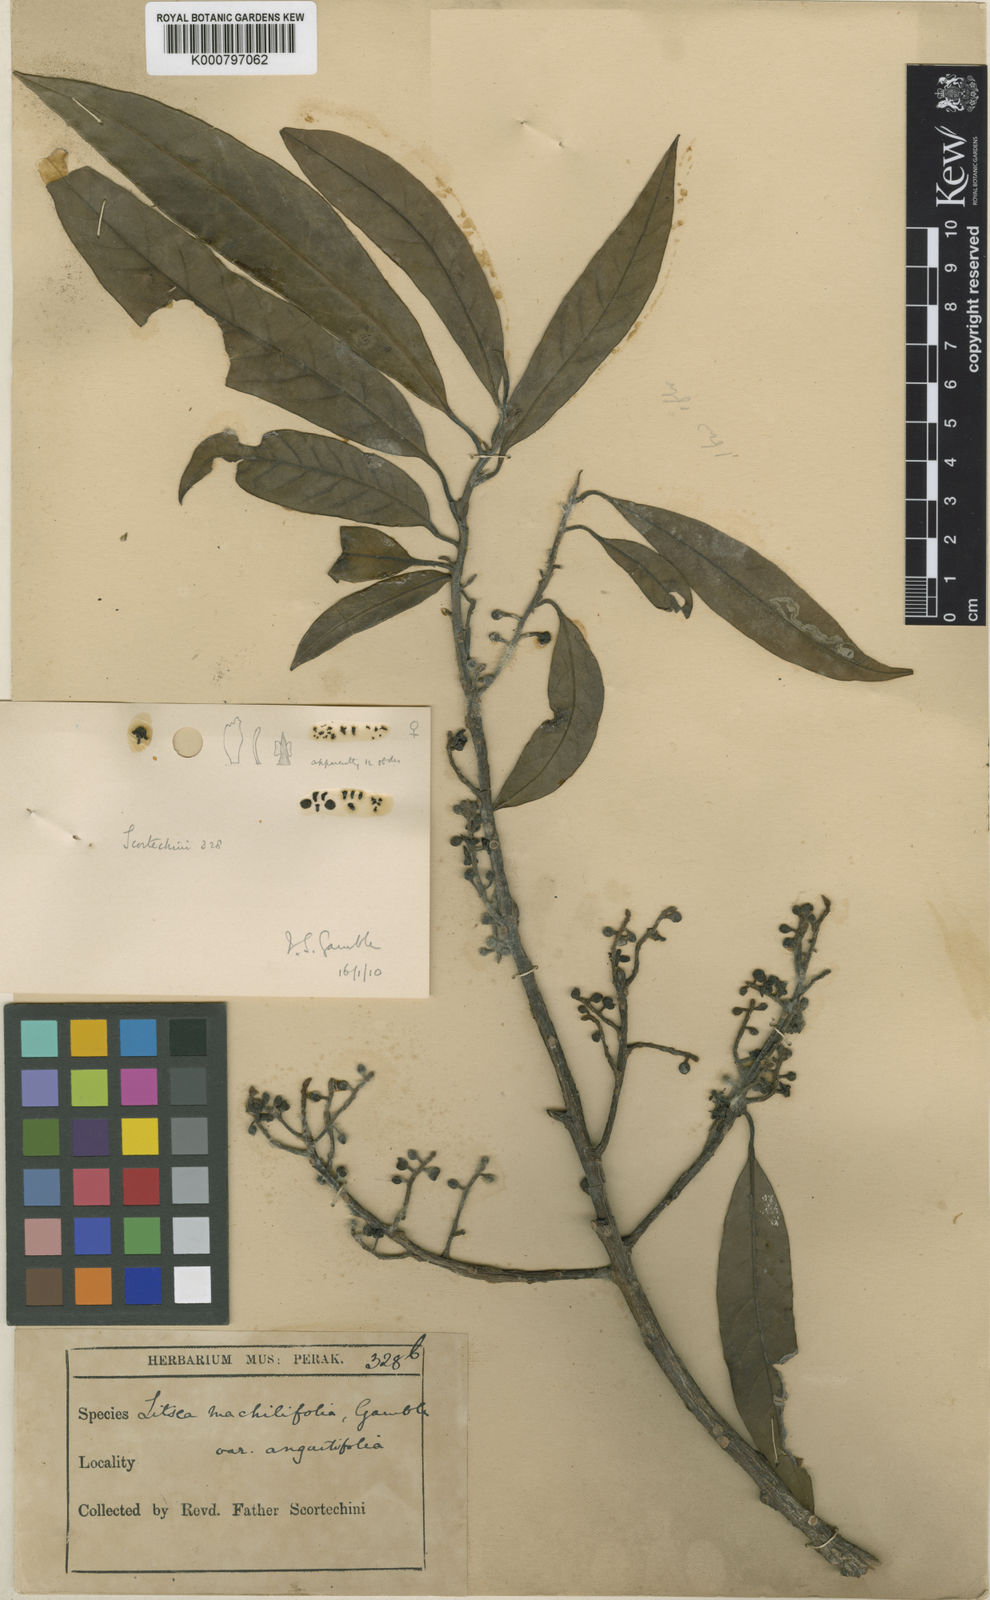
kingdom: Plantae
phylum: Tracheophyta
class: Magnoliopsida
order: Laurales
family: Lauraceae
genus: Litsea
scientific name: Litsea machilifolia
